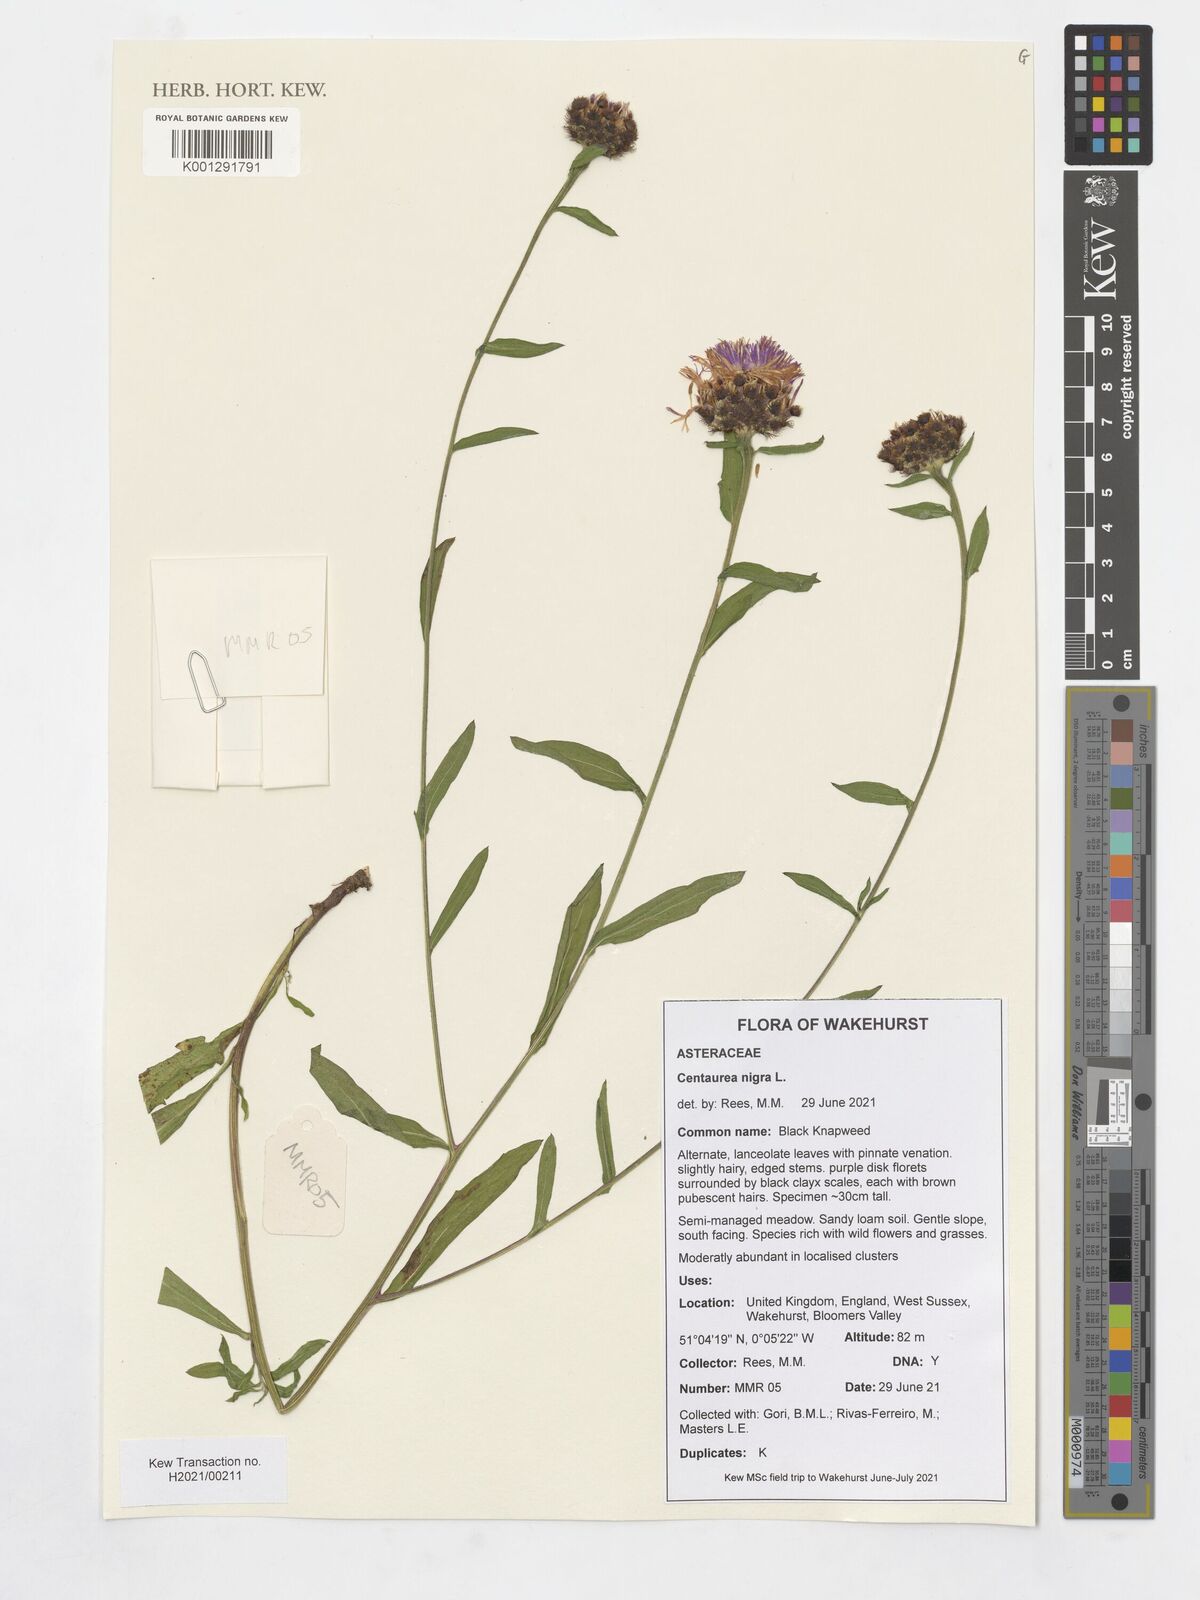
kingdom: Plantae
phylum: Tracheophyta
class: Magnoliopsida
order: Asterales
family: Asteraceae
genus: Centaurea
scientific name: Centaurea nigra
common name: Lesser knapweed
